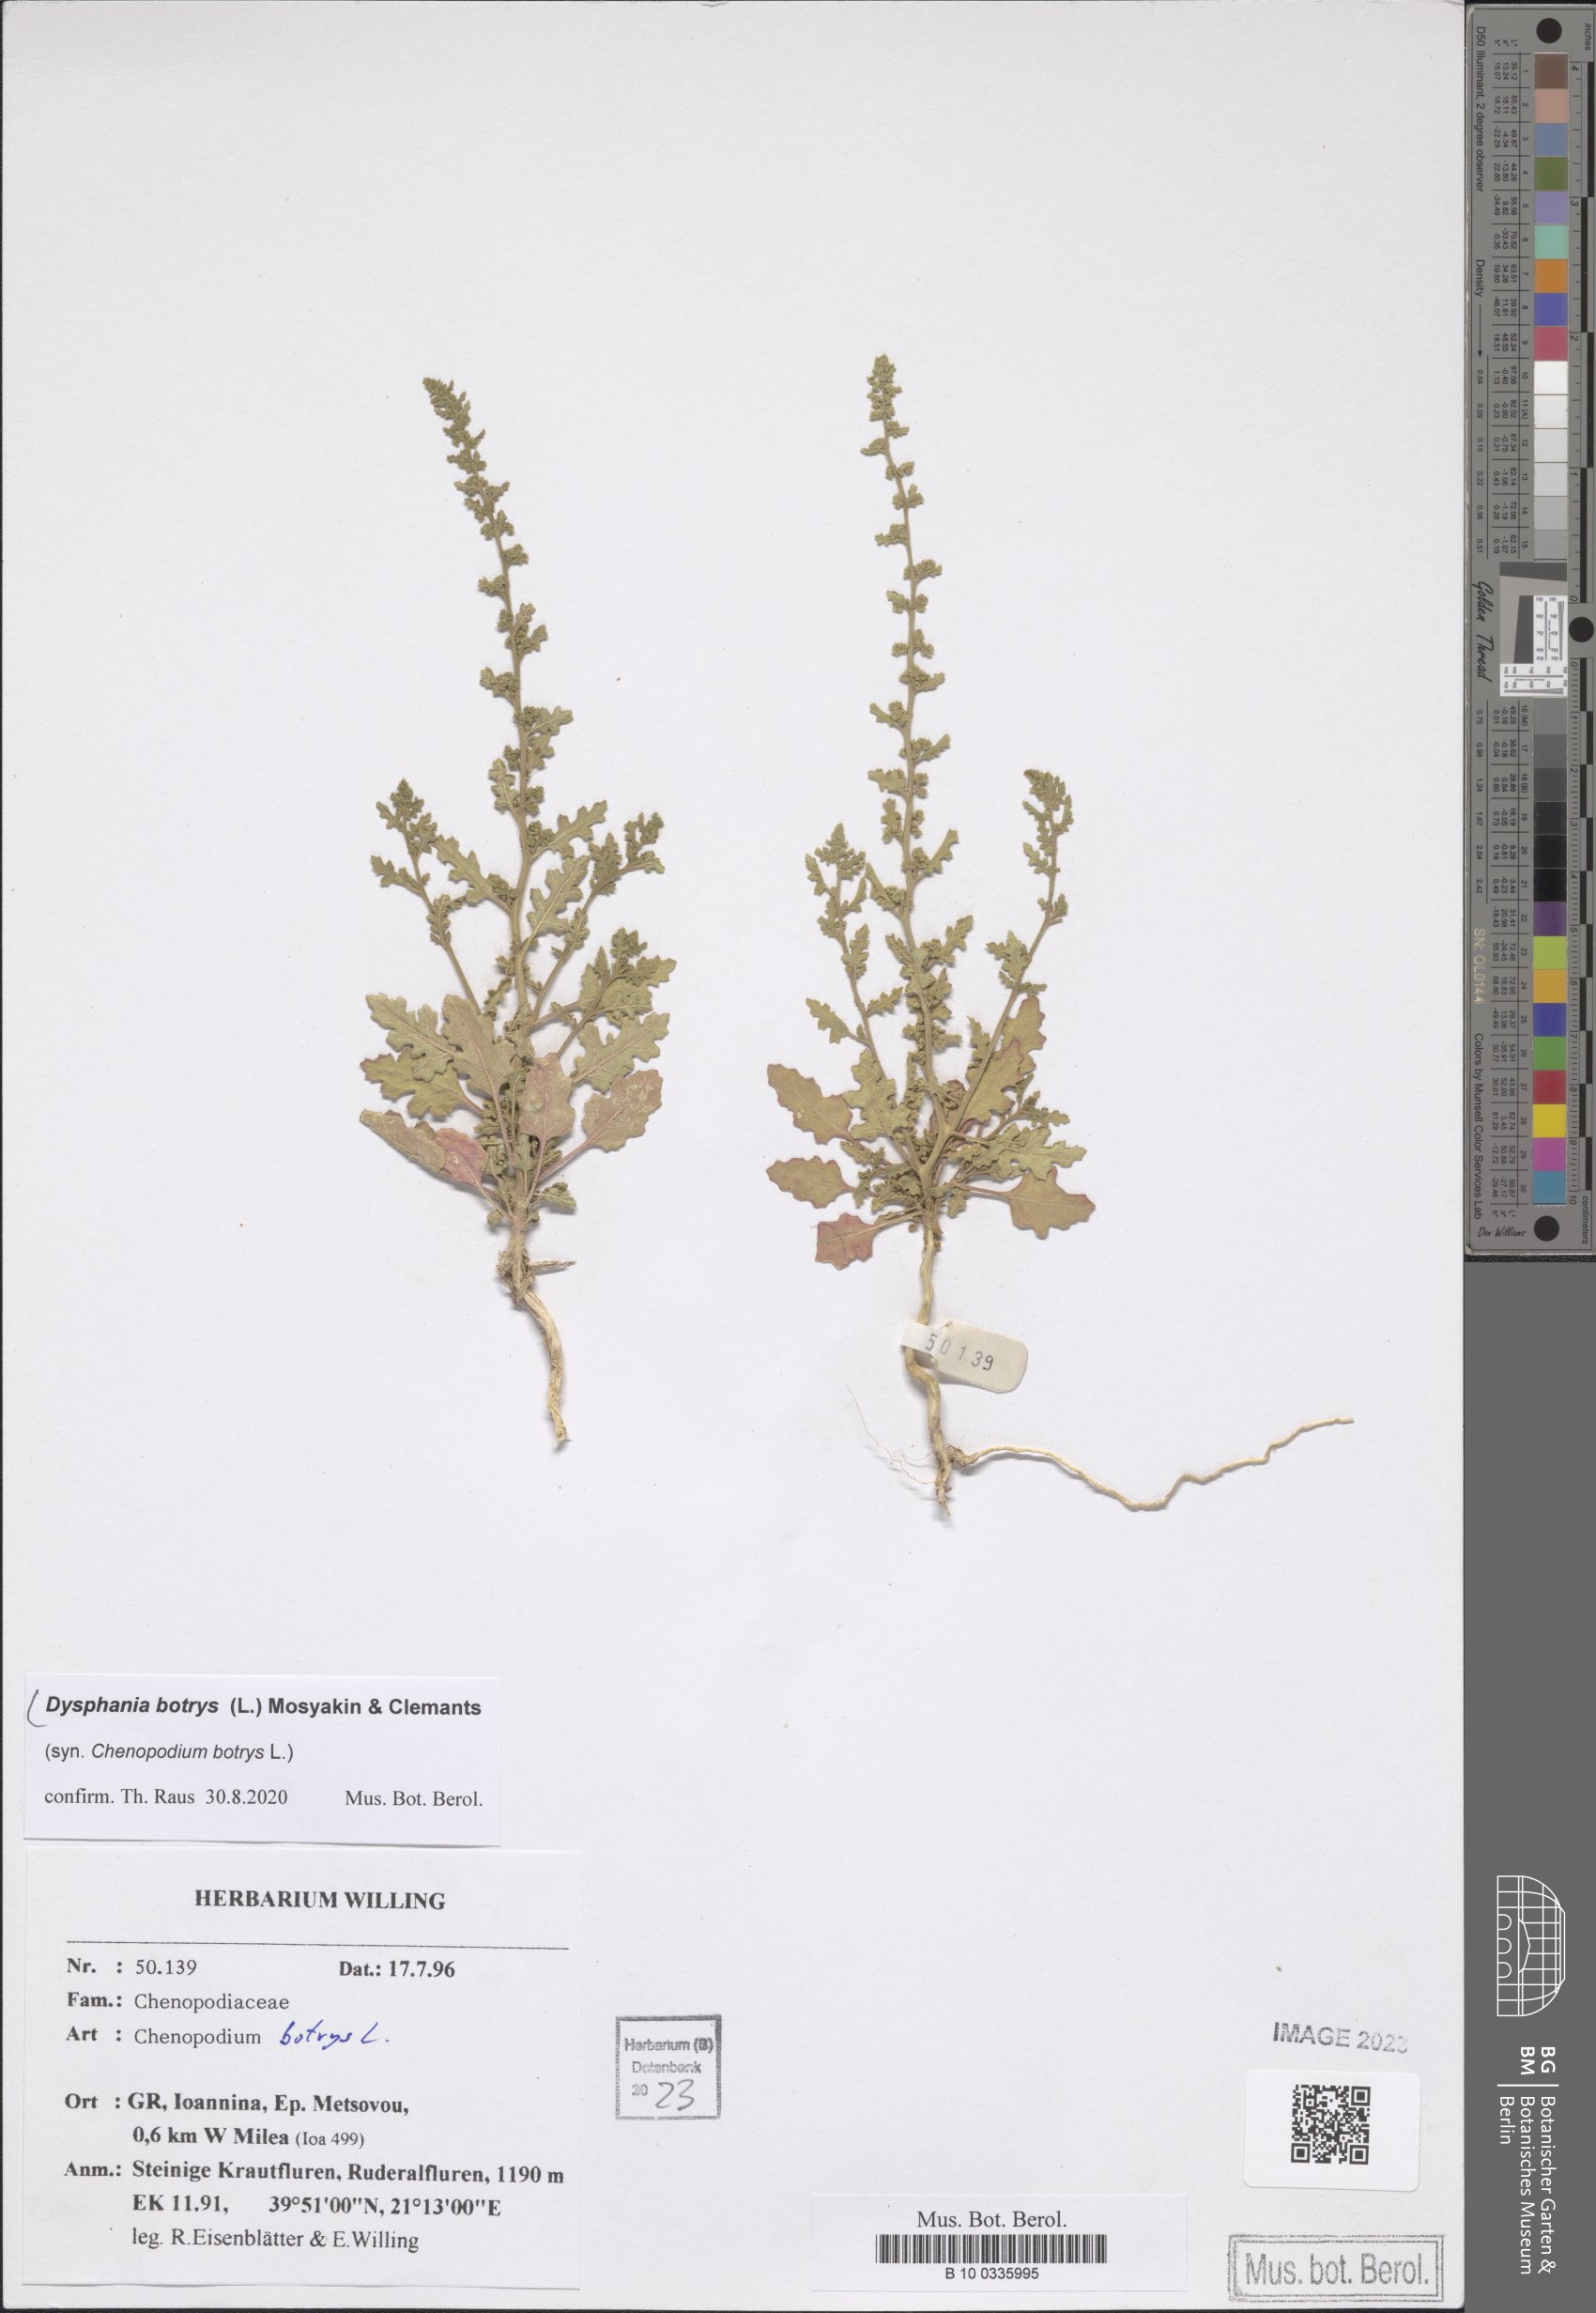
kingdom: Plantae
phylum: Tracheophyta
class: Magnoliopsida
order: Caryophyllales
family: Amaranthaceae
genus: Dysphania
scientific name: Dysphania botrys
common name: Feather-geranium
